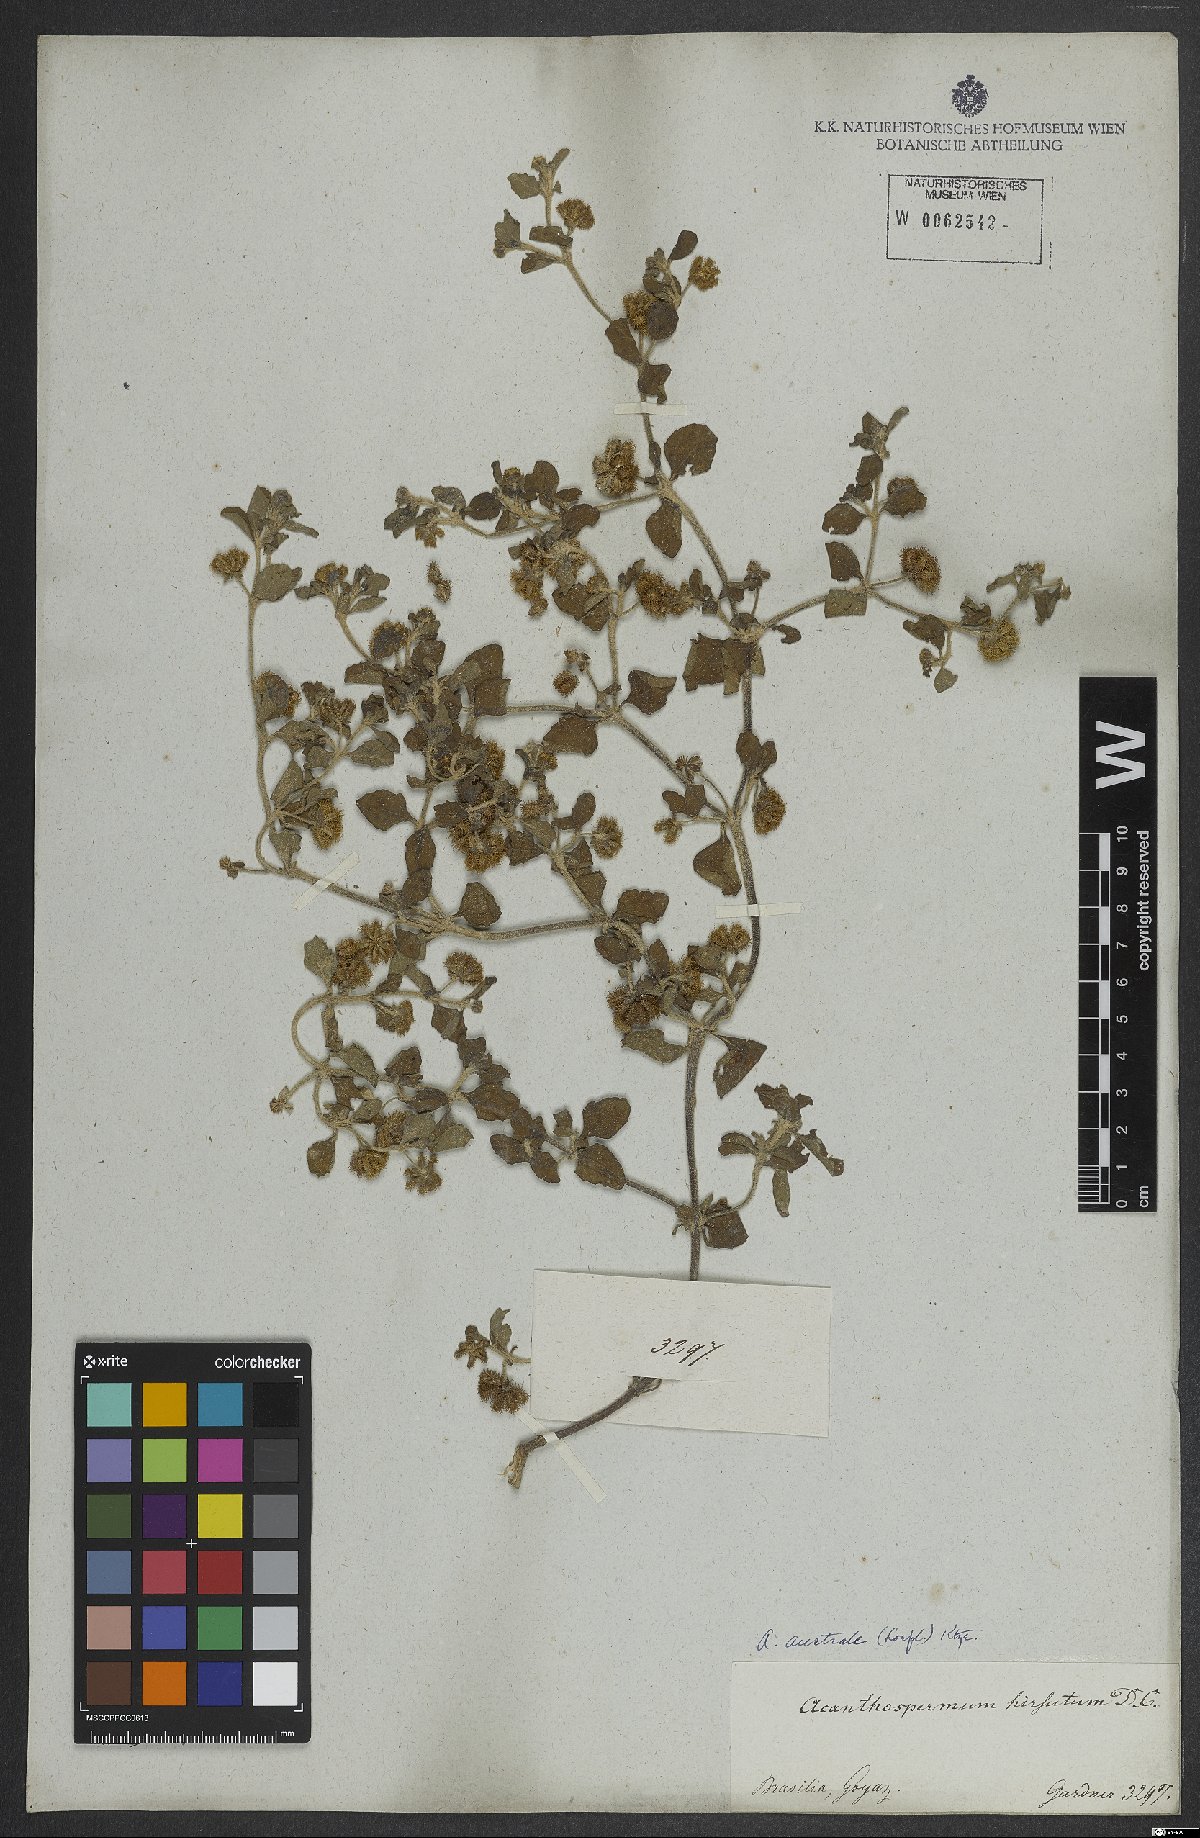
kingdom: Plantae
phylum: Tracheophyta
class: Magnoliopsida
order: Asterales
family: Asteraceae
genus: Acanthospermum
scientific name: Acanthospermum australe
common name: Paraguayan starbur
